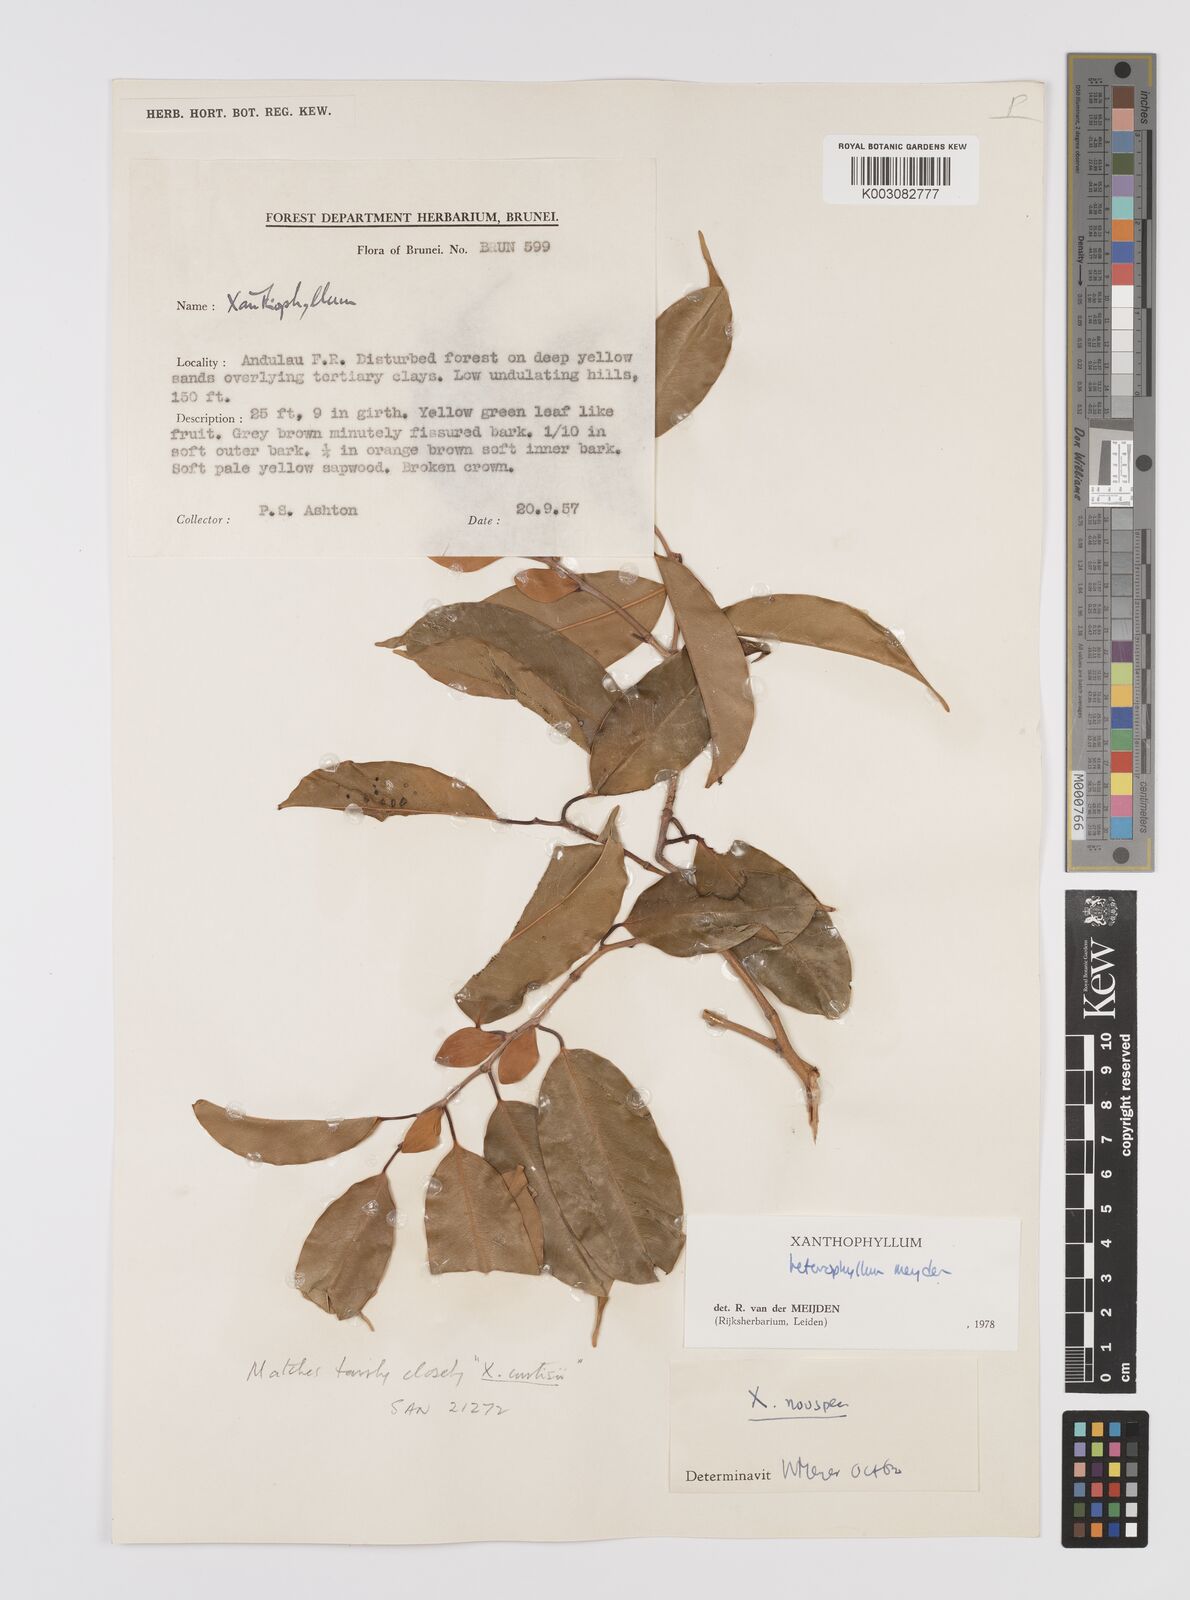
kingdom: Plantae
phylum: Tracheophyta
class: Magnoliopsida
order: Fabales
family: Polygalaceae
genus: Xanthophyllum
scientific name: Xanthophyllum heterophyllum
